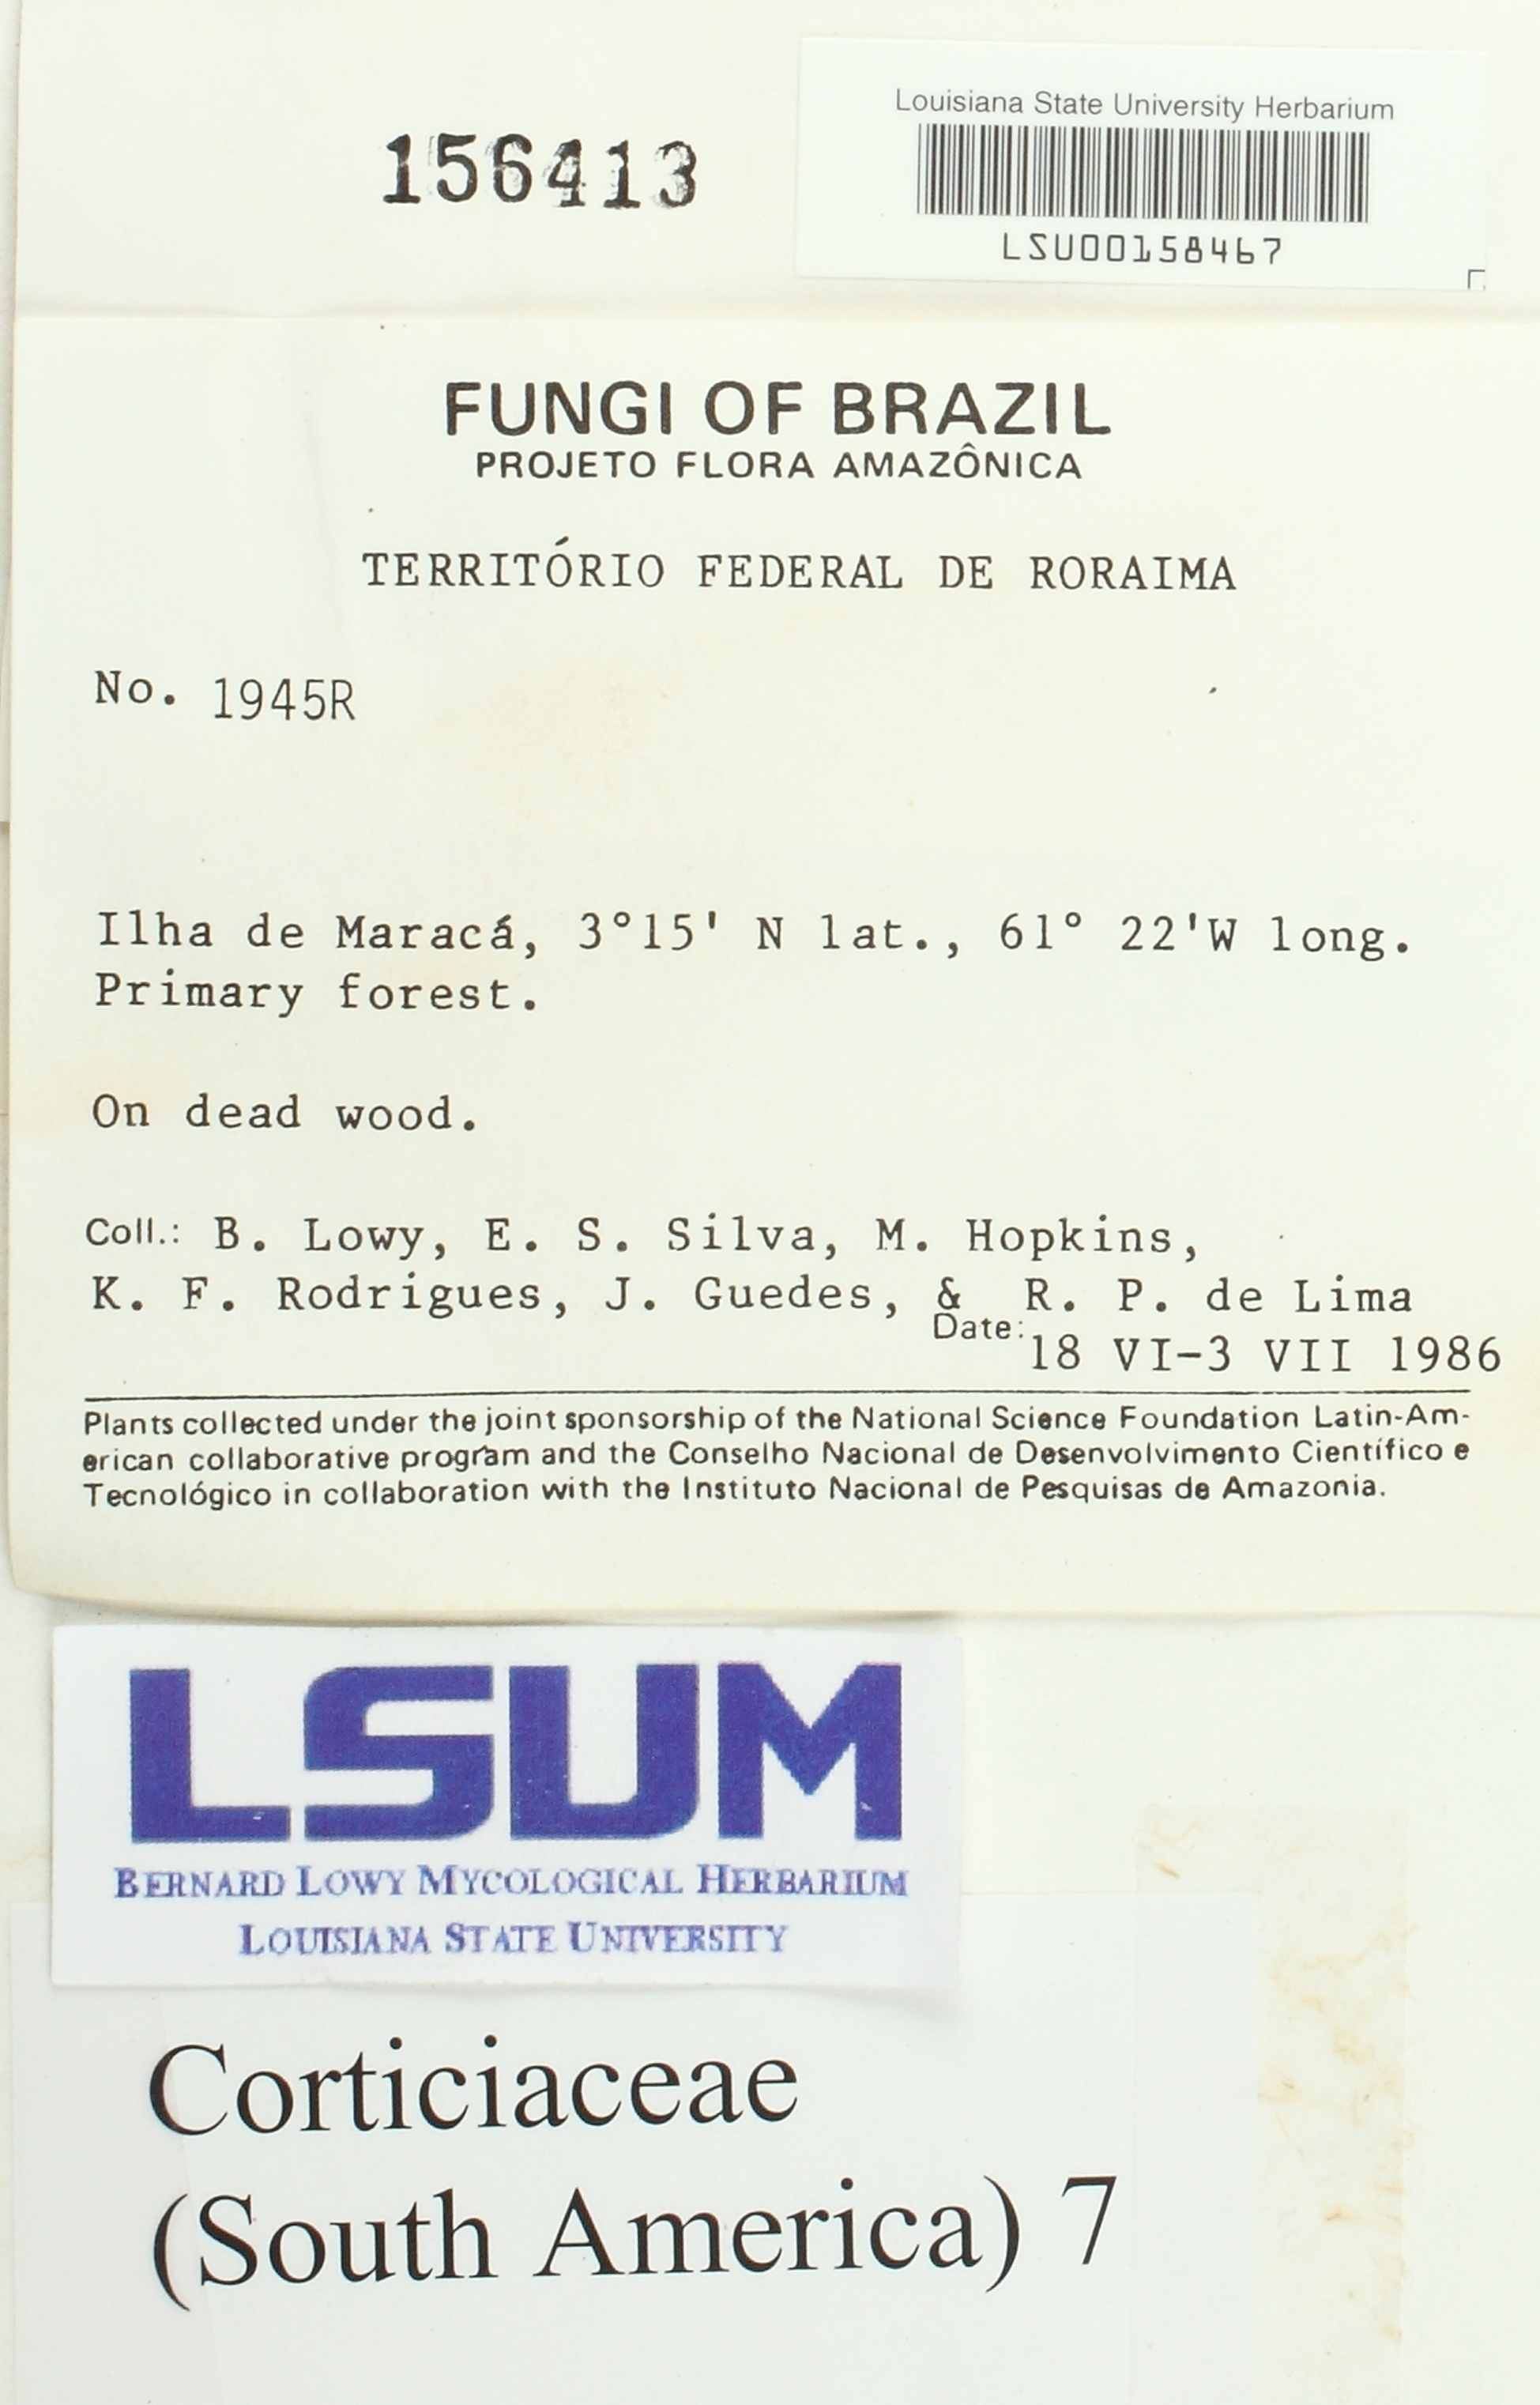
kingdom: Fungi
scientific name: Fungi
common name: Fungi
